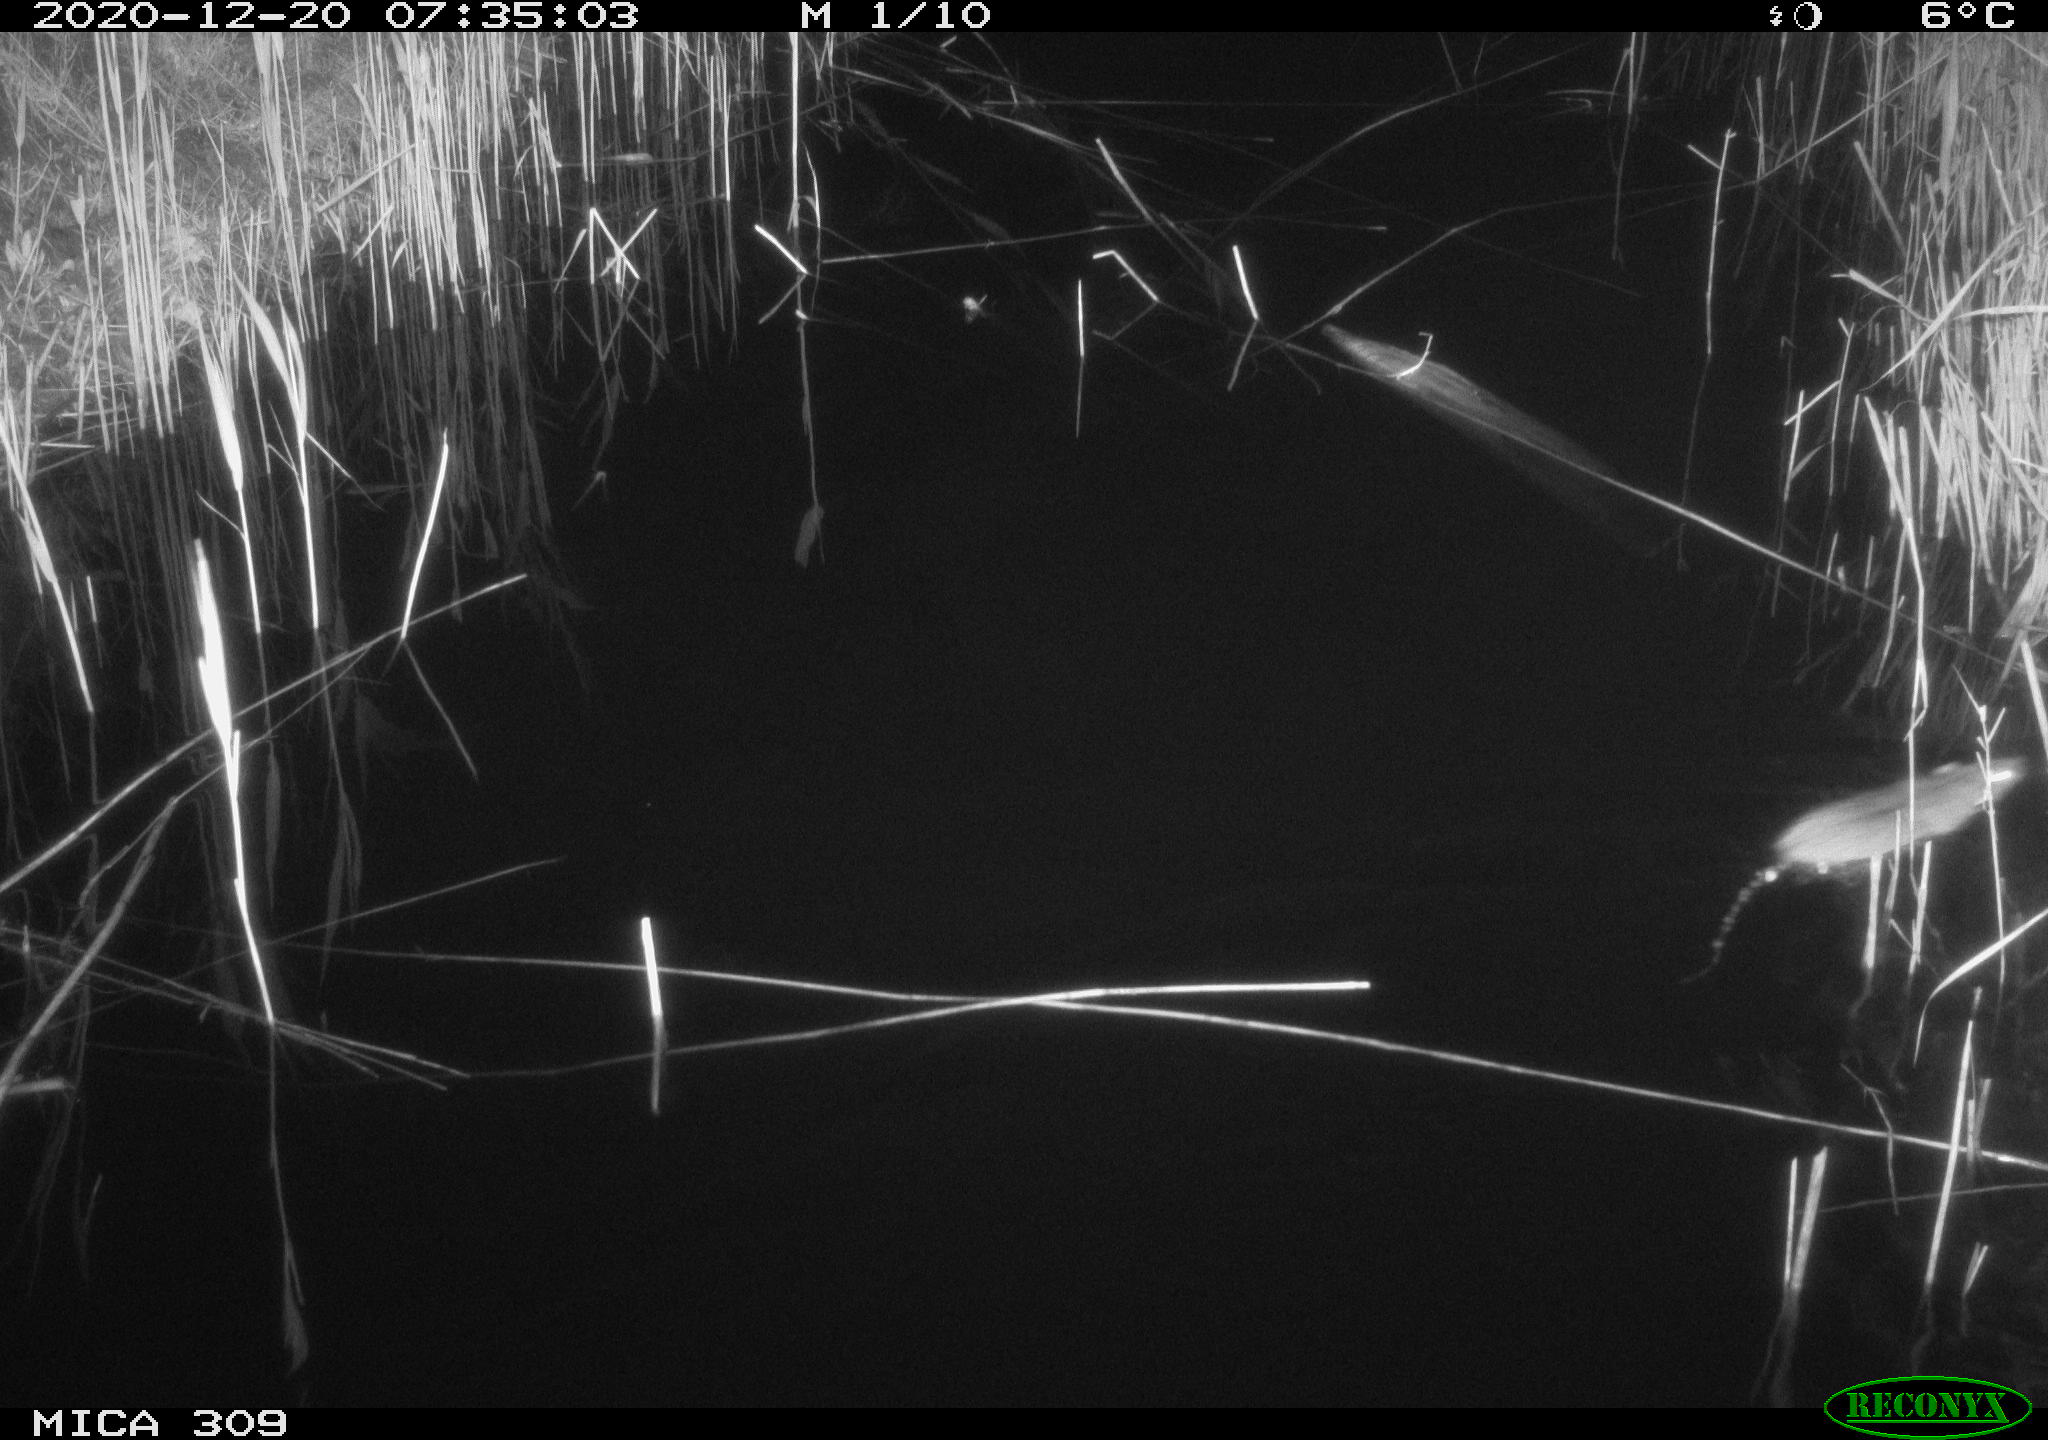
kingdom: Animalia
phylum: Chordata
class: Mammalia
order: Rodentia
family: Muridae
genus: Rattus
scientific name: Rattus norvegicus
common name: Brown rat
